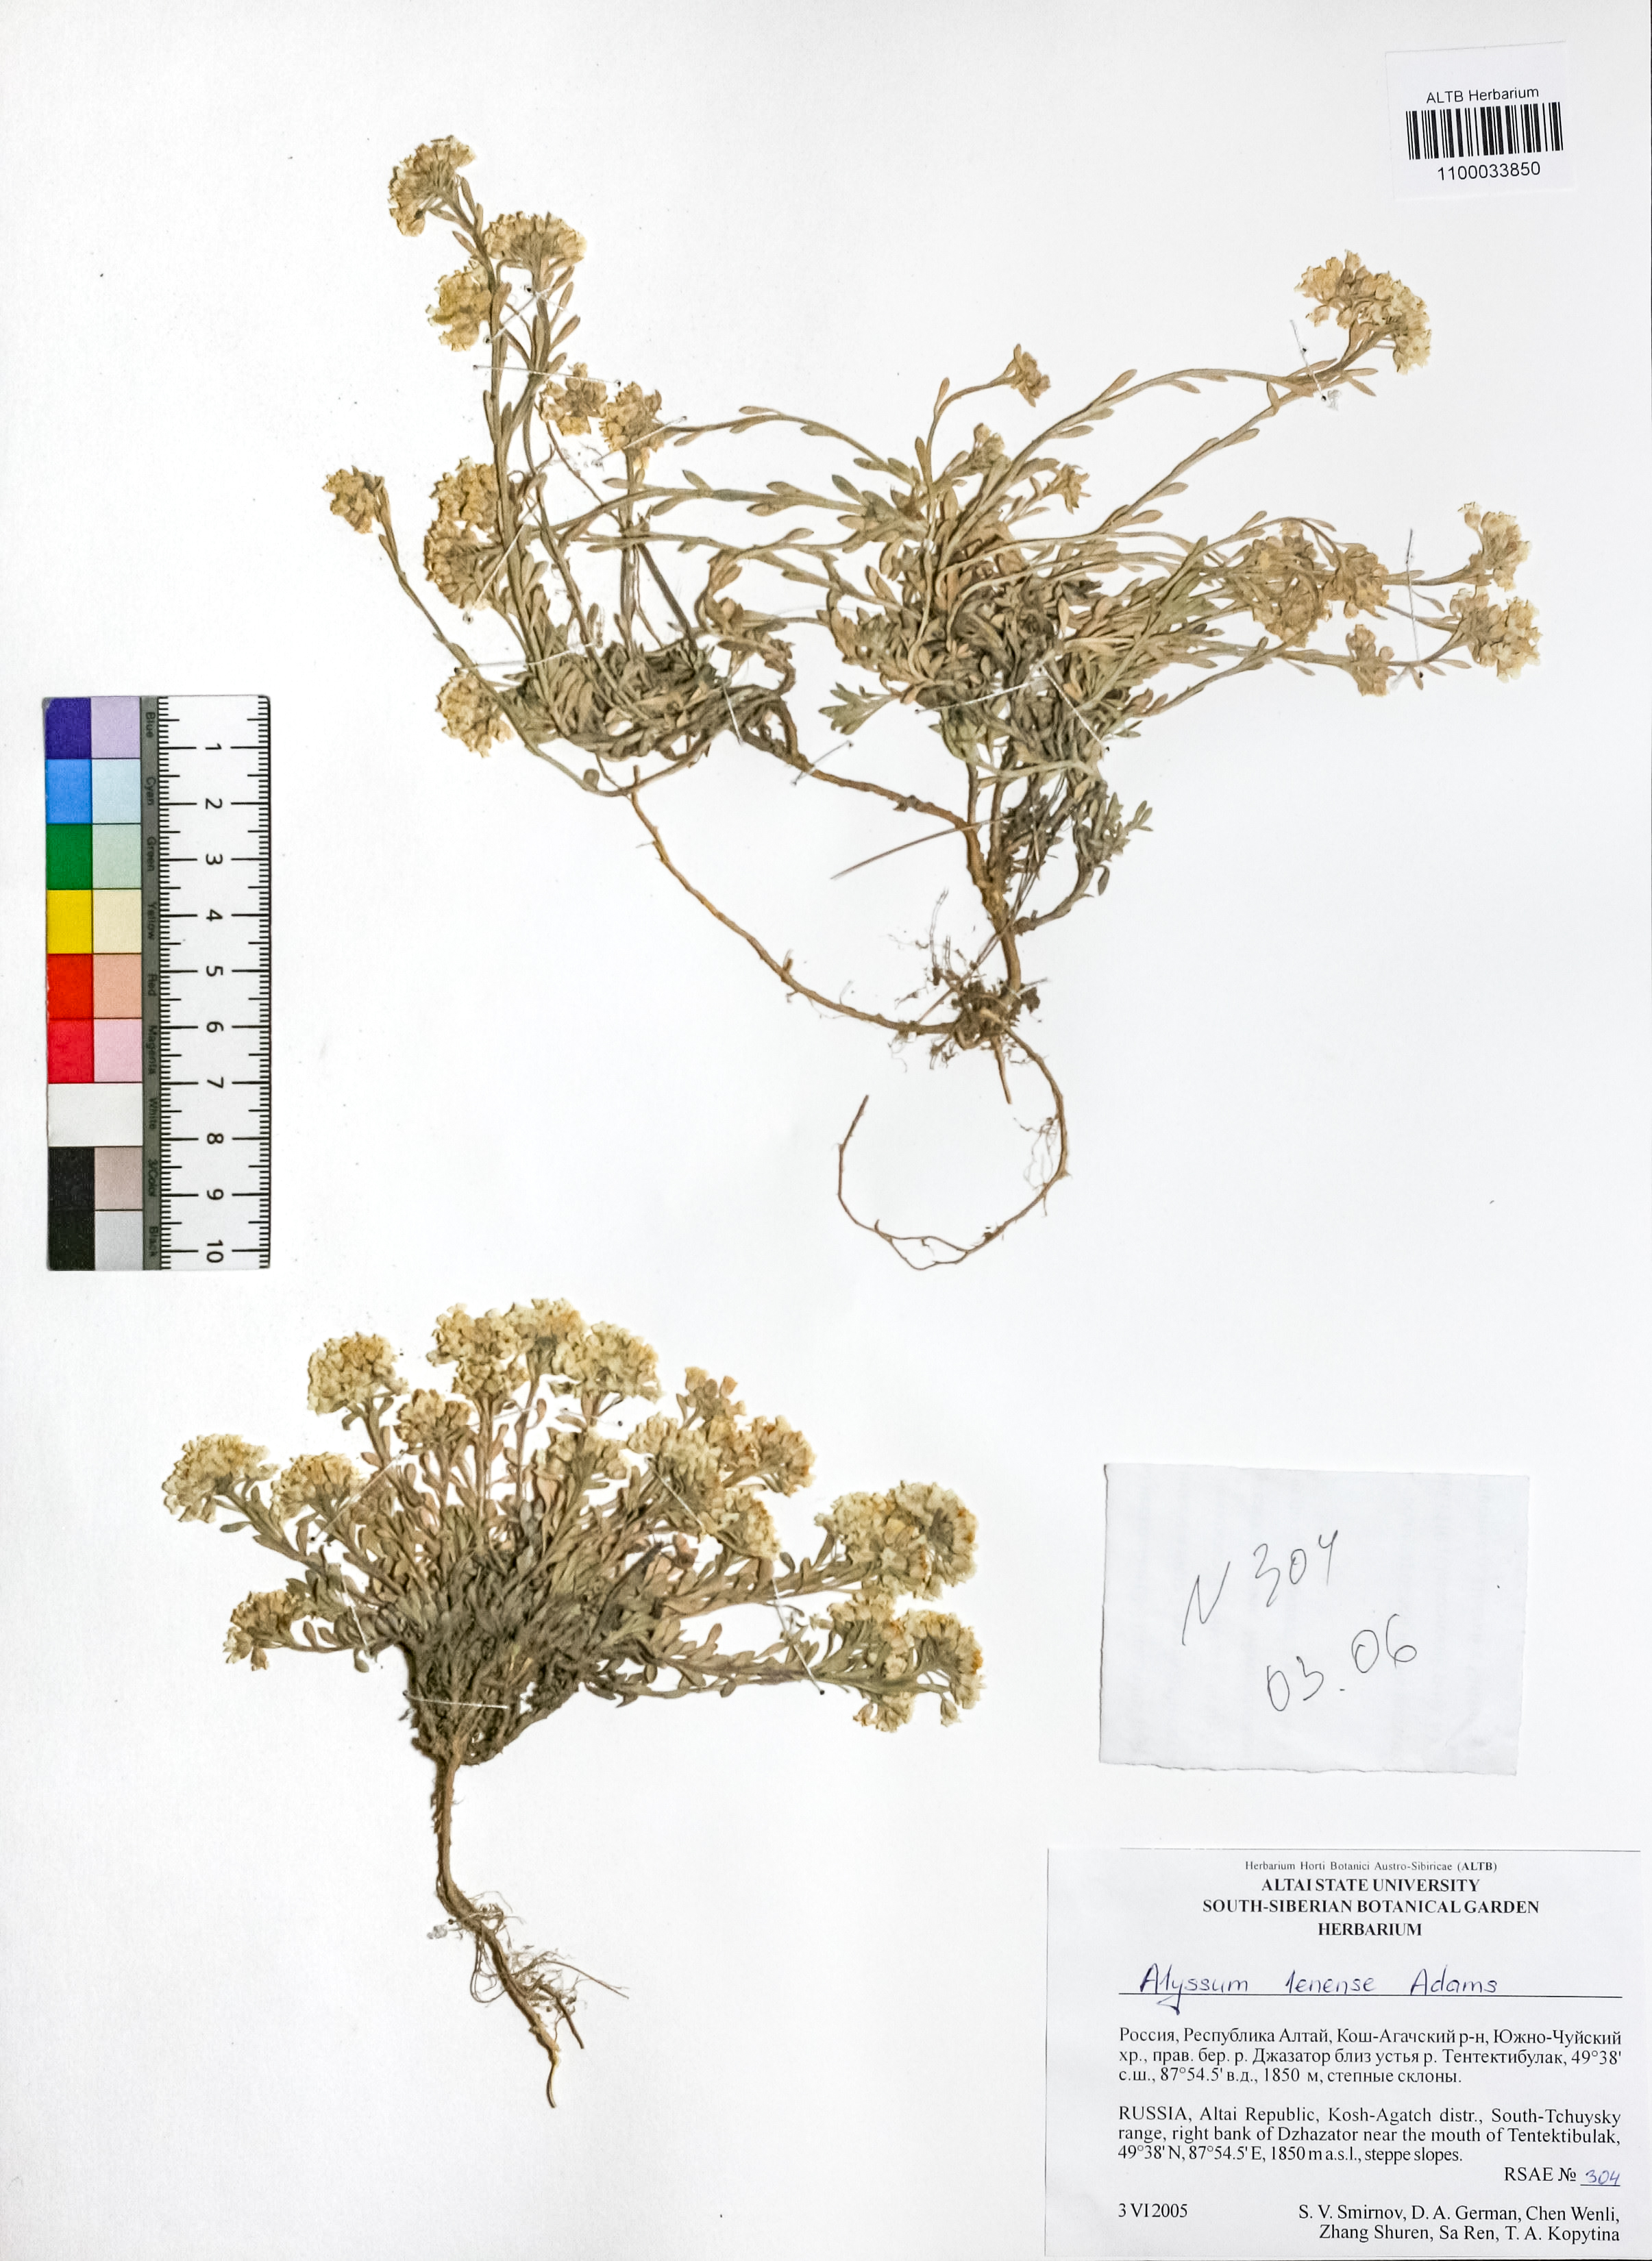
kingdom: Plantae
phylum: Tracheophyta
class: Magnoliopsida
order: Brassicales
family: Brassicaceae
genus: Alyssum
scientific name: Alyssum lenense
